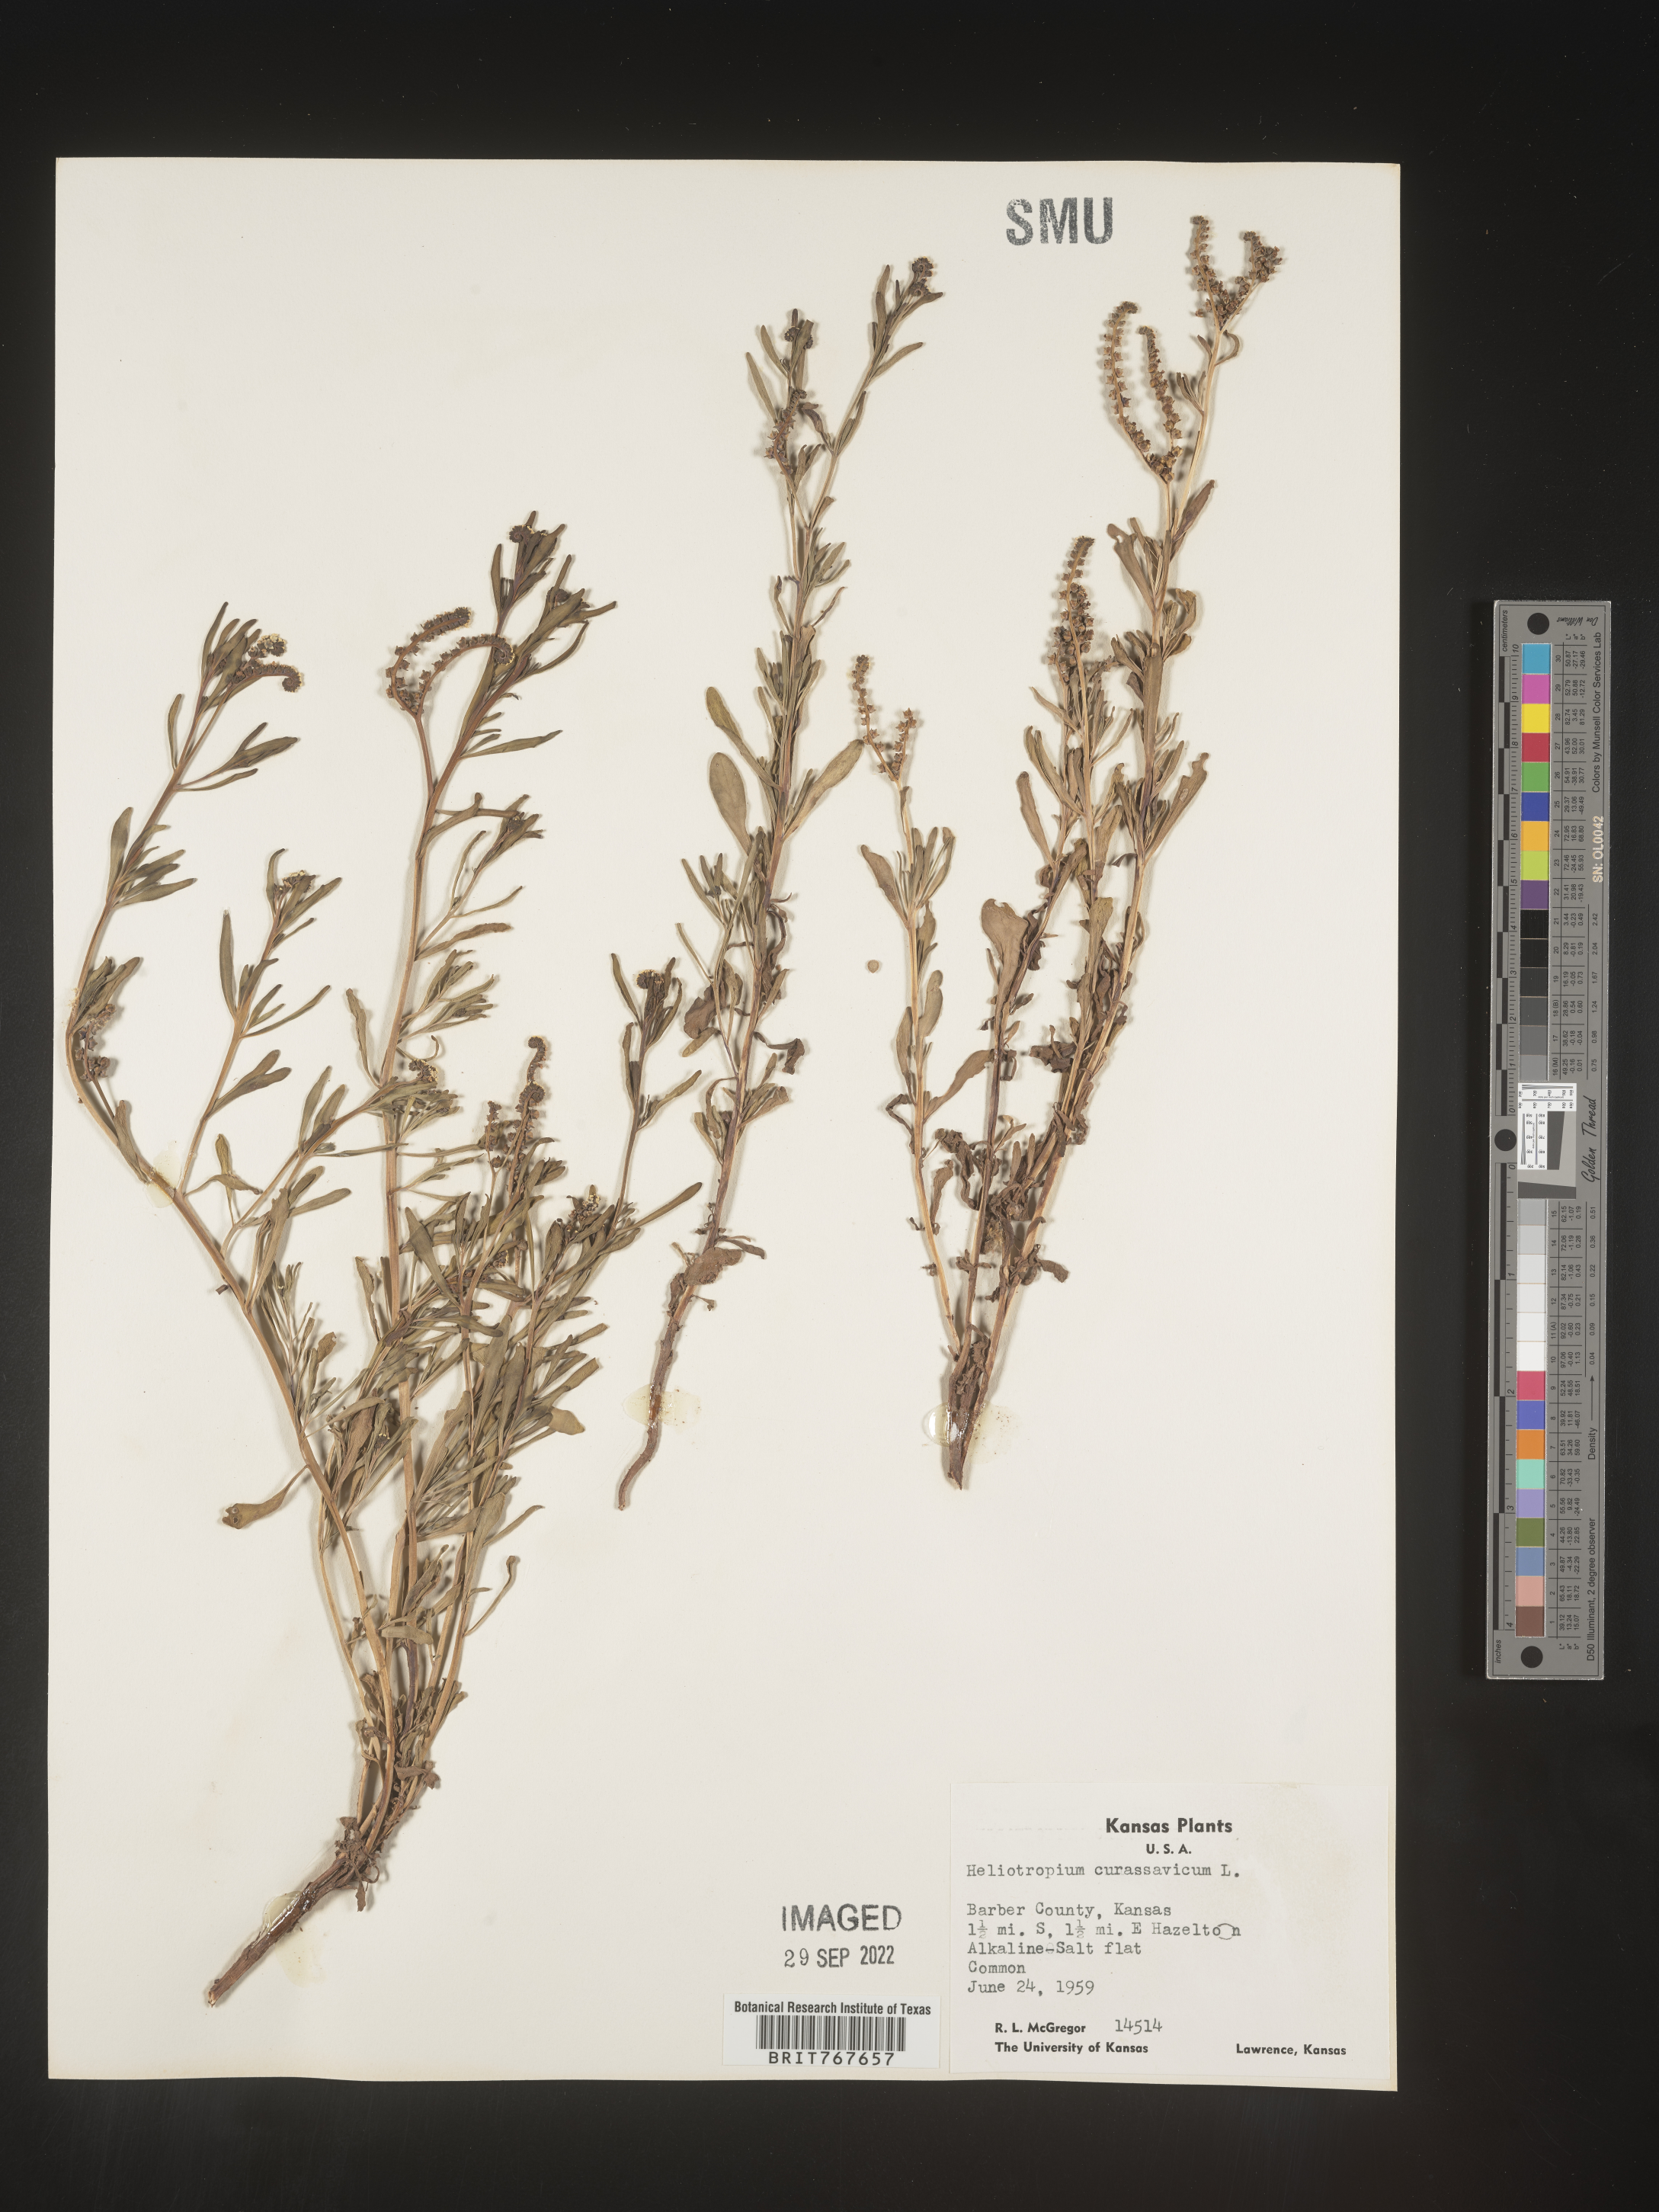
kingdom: Plantae
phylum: Tracheophyta
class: Magnoliopsida
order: Boraginales
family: Heliotropiaceae
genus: Heliotropium
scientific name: Heliotropium curassavicum
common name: Seaside heliotrope
